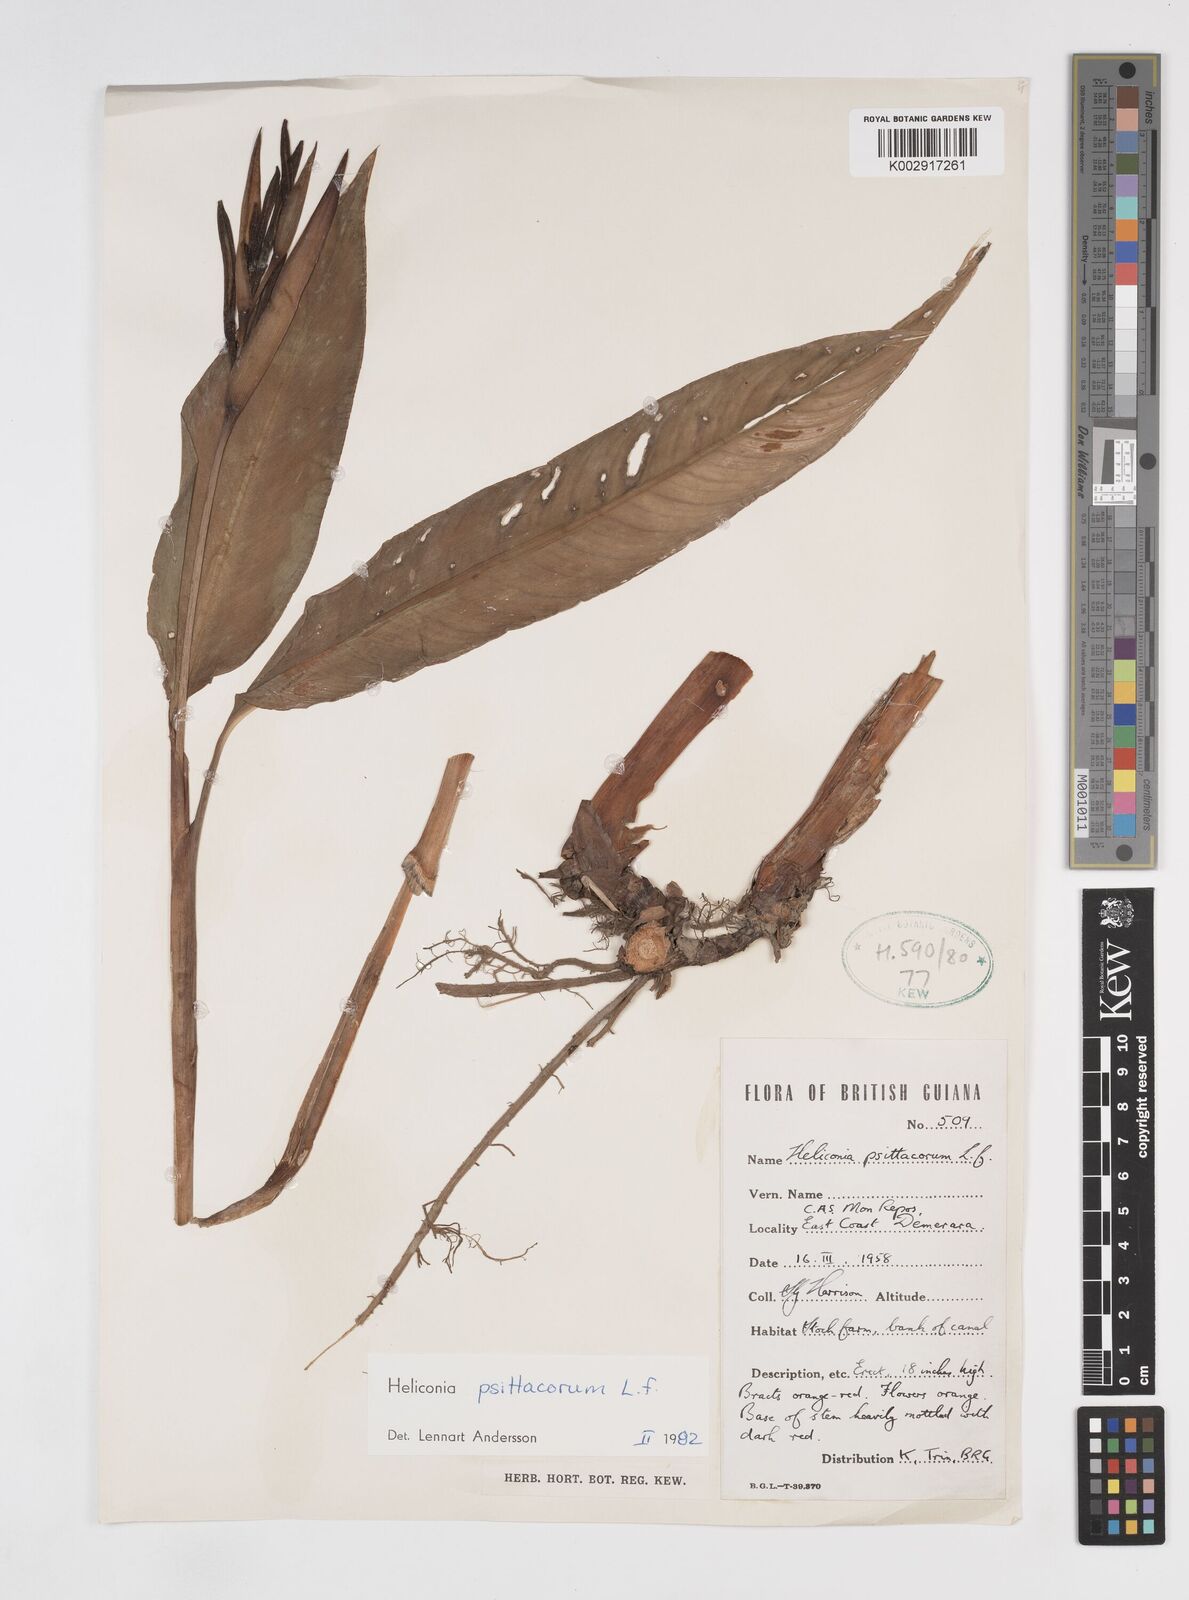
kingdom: Plantae
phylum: Tracheophyta
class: Liliopsida
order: Zingiberales
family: Heliconiaceae
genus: Heliconia
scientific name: Heliconia psittacorum
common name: Parrot's-flower
